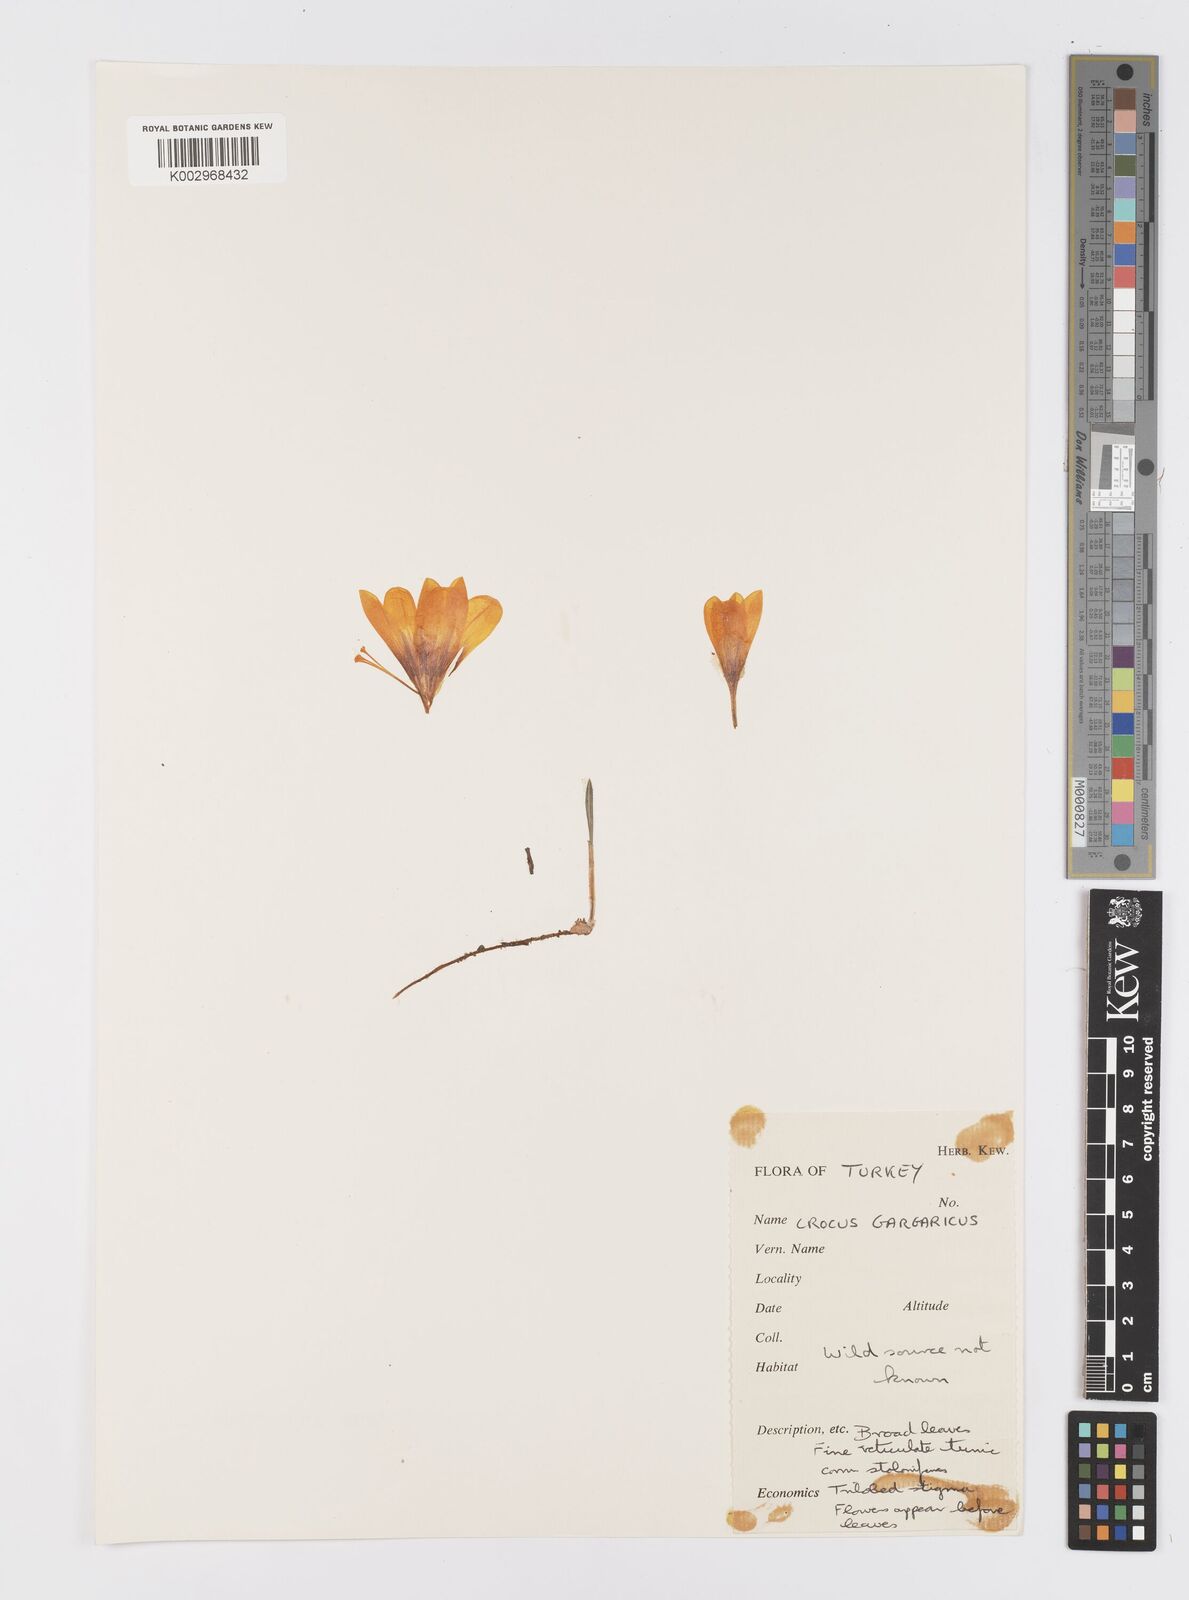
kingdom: Plantae
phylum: Tracheophyta
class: Liliopsida
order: Asparagales
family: Iridaceae
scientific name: Iridaceae
